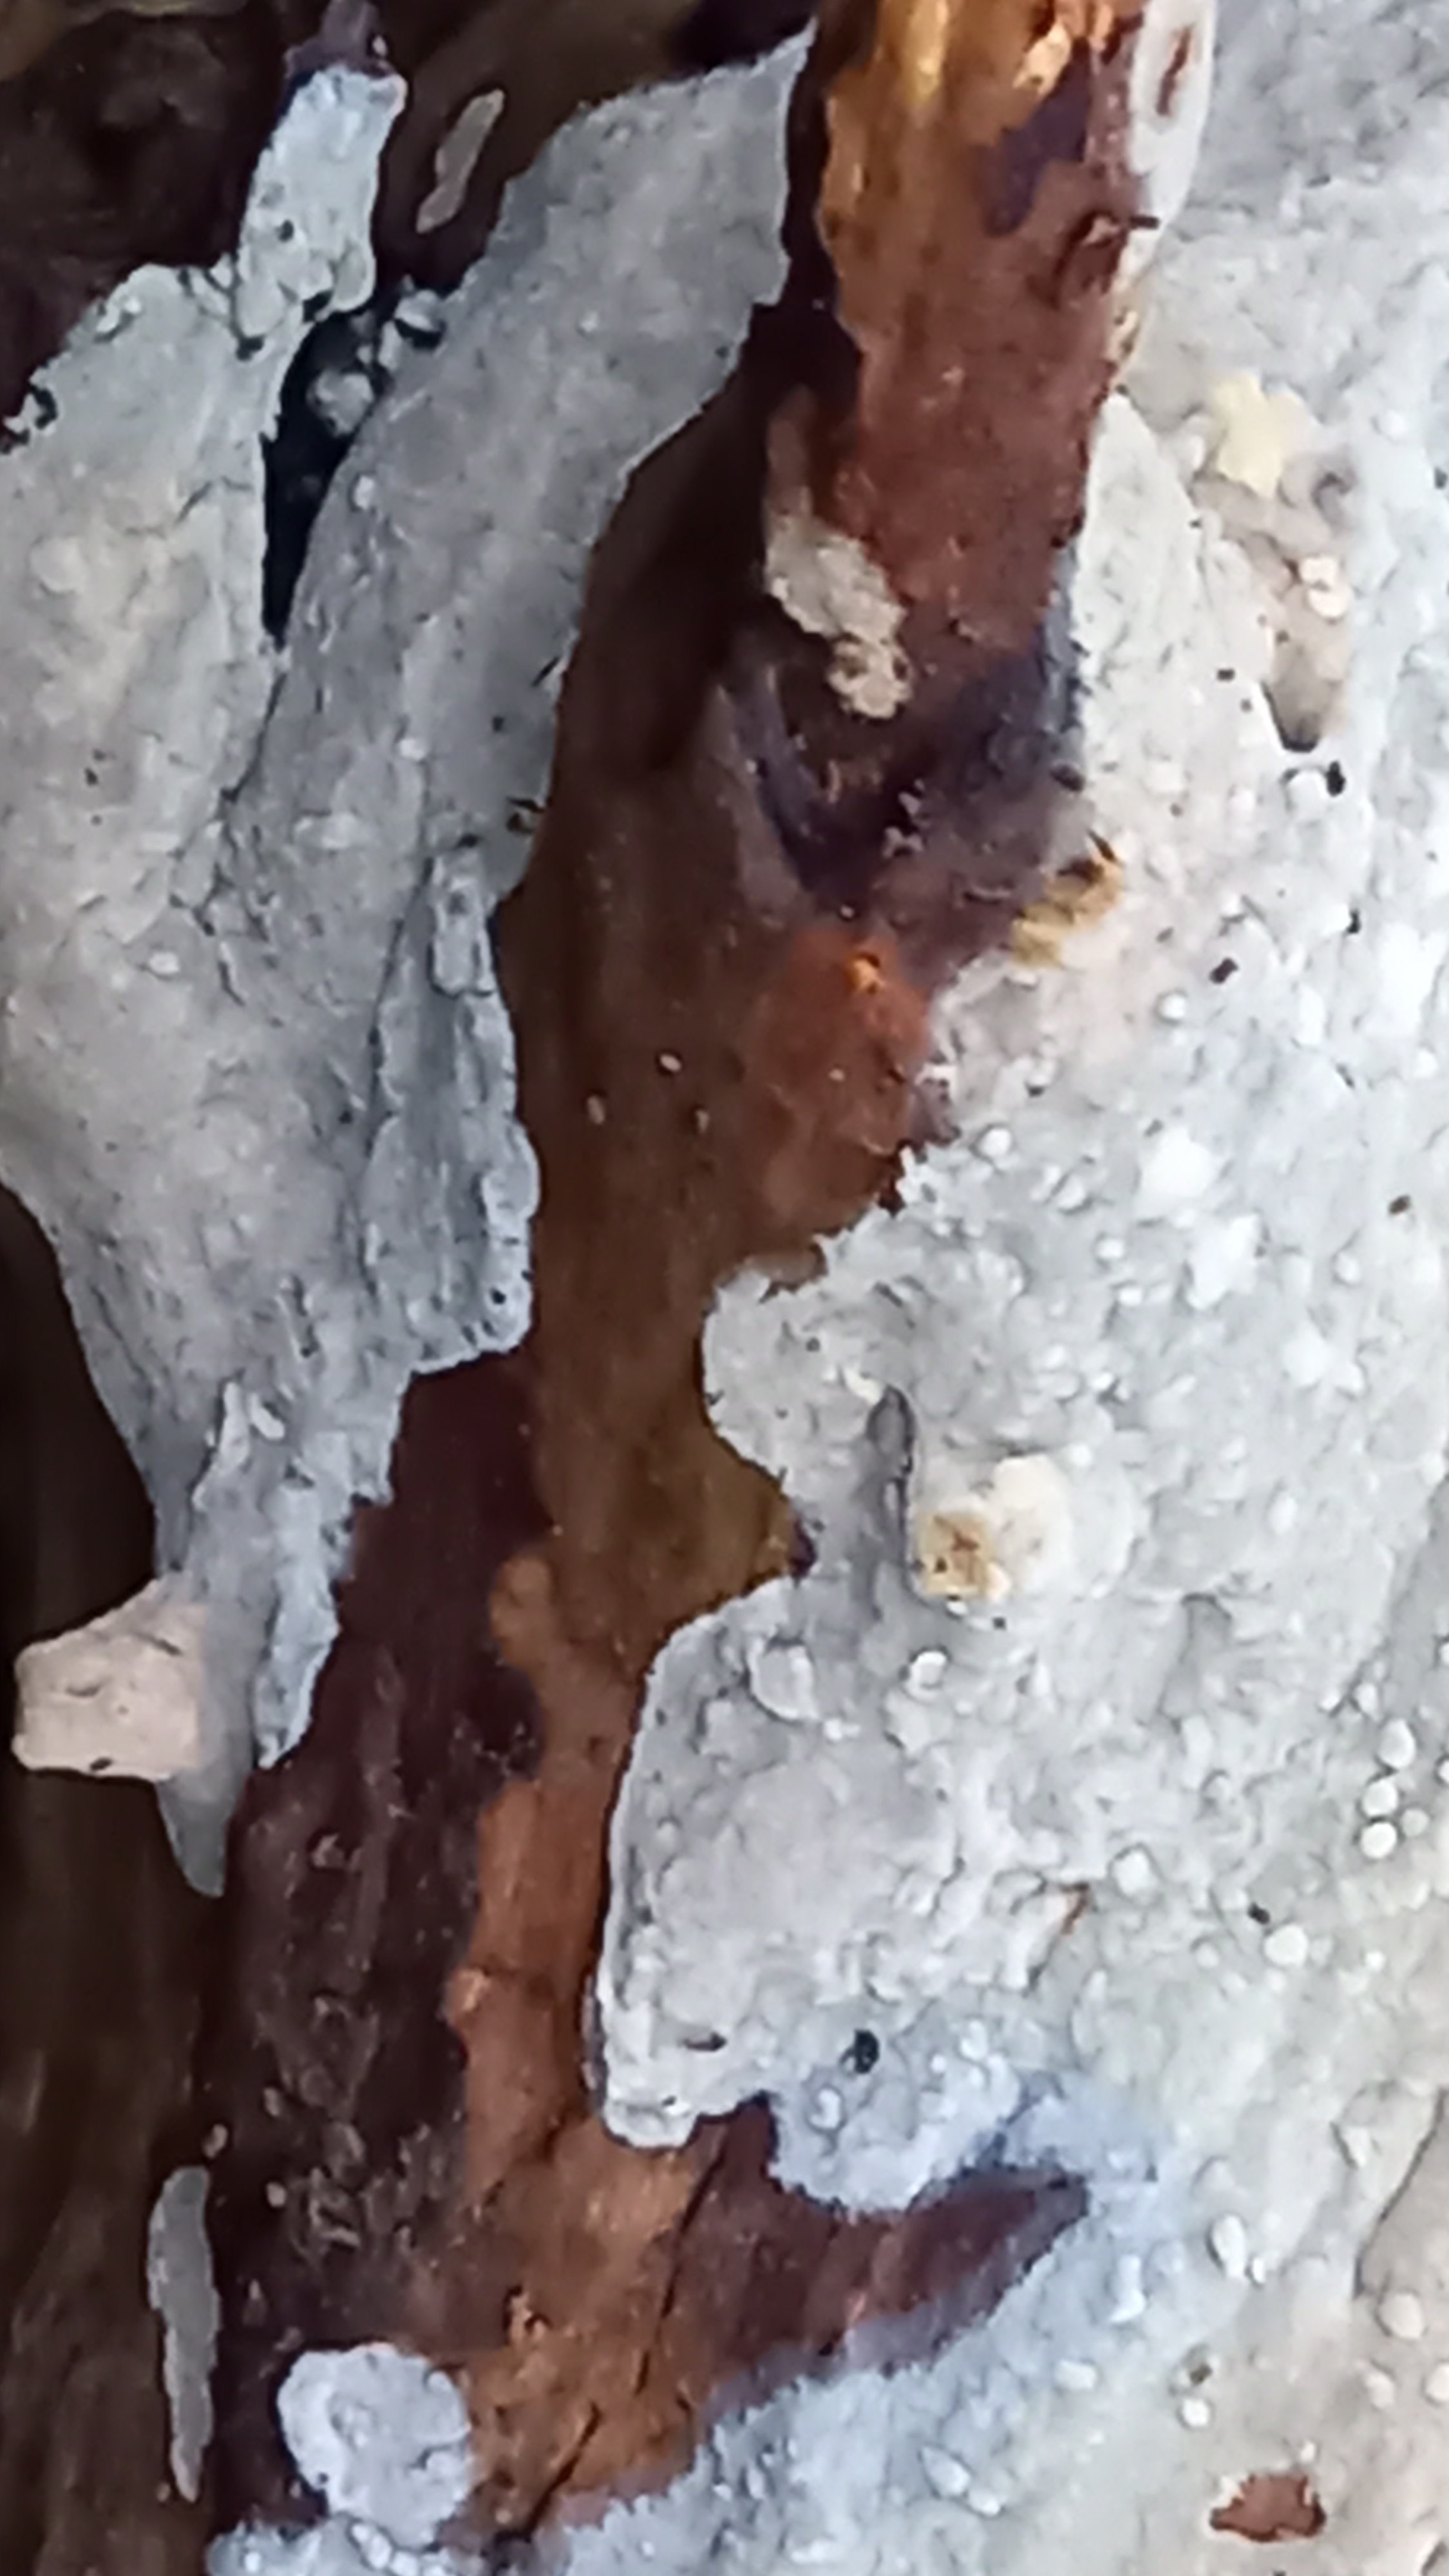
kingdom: Fungi
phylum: Basidiomycota
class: Agaricomycetes
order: Agaricales
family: Radulomycetaceae
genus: Radulomyces
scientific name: Radulomyces confluens
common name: glat naftalinskind
